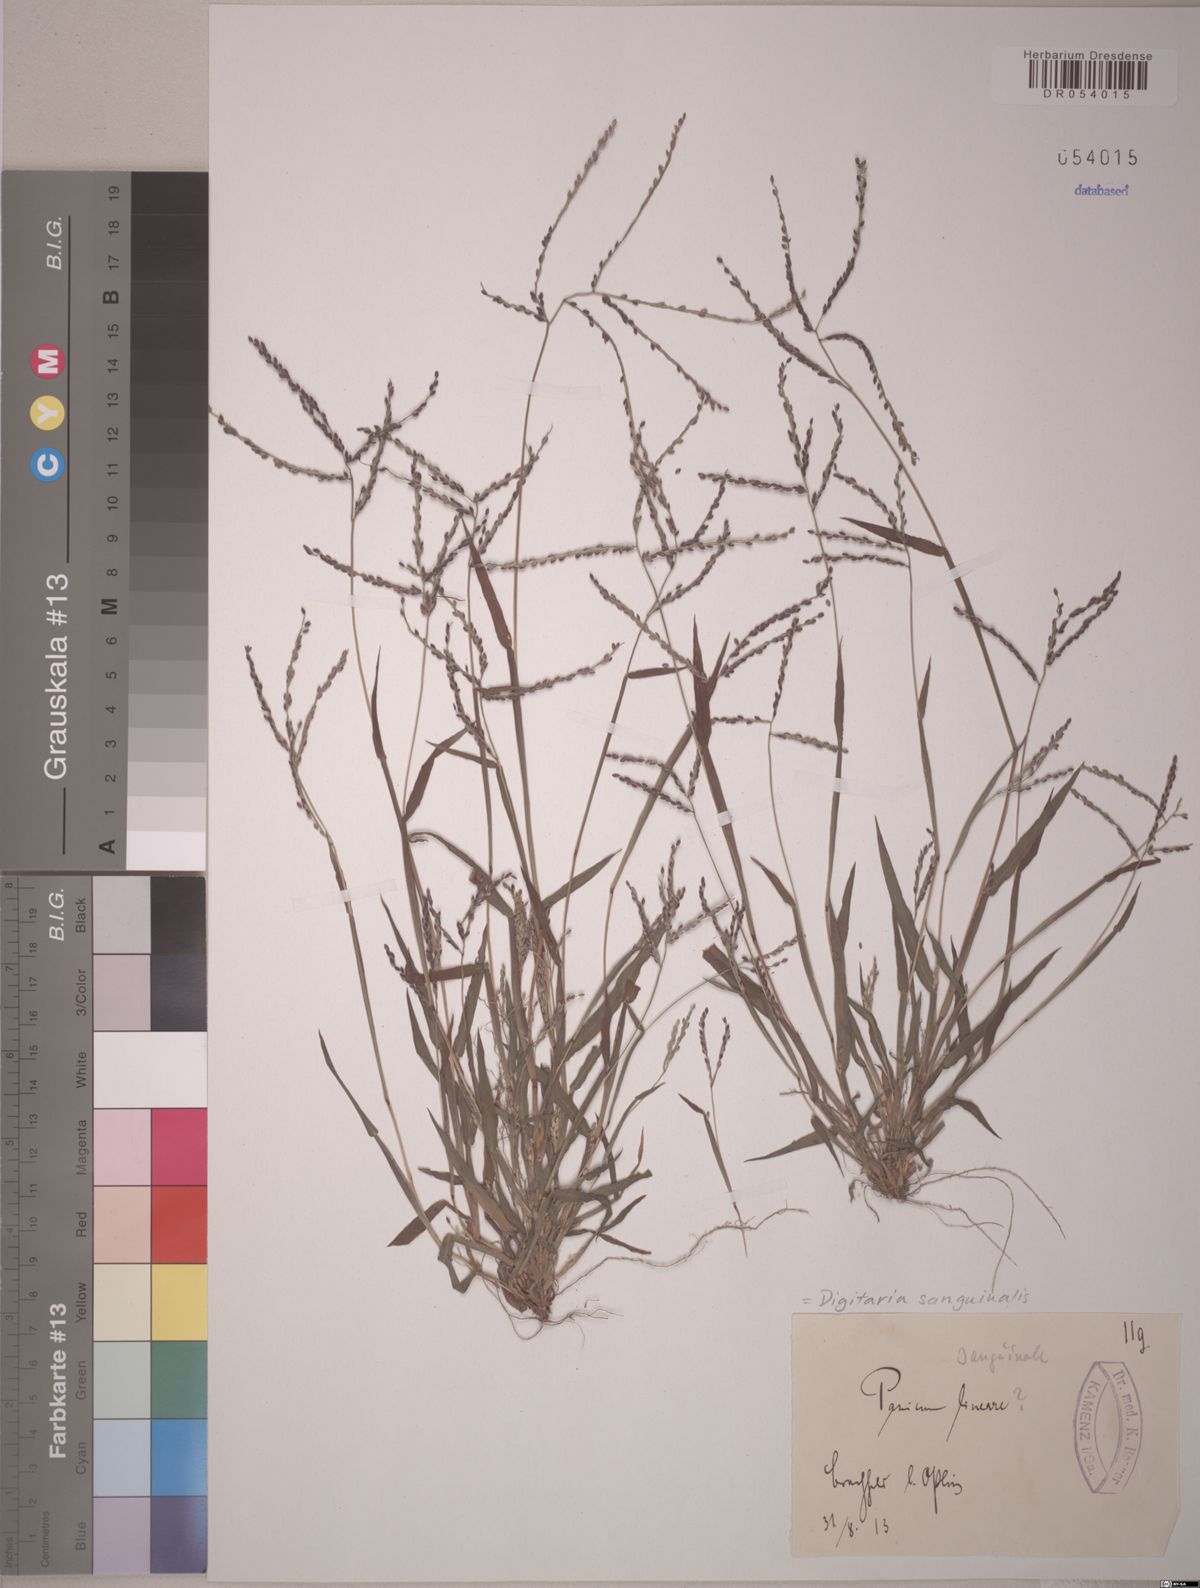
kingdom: Plantae
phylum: Tracheophyta
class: Liliopsida
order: Poales
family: Poaceae
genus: Digitaria
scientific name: Digitaria sanguinalis
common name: Hairy crabgrass
